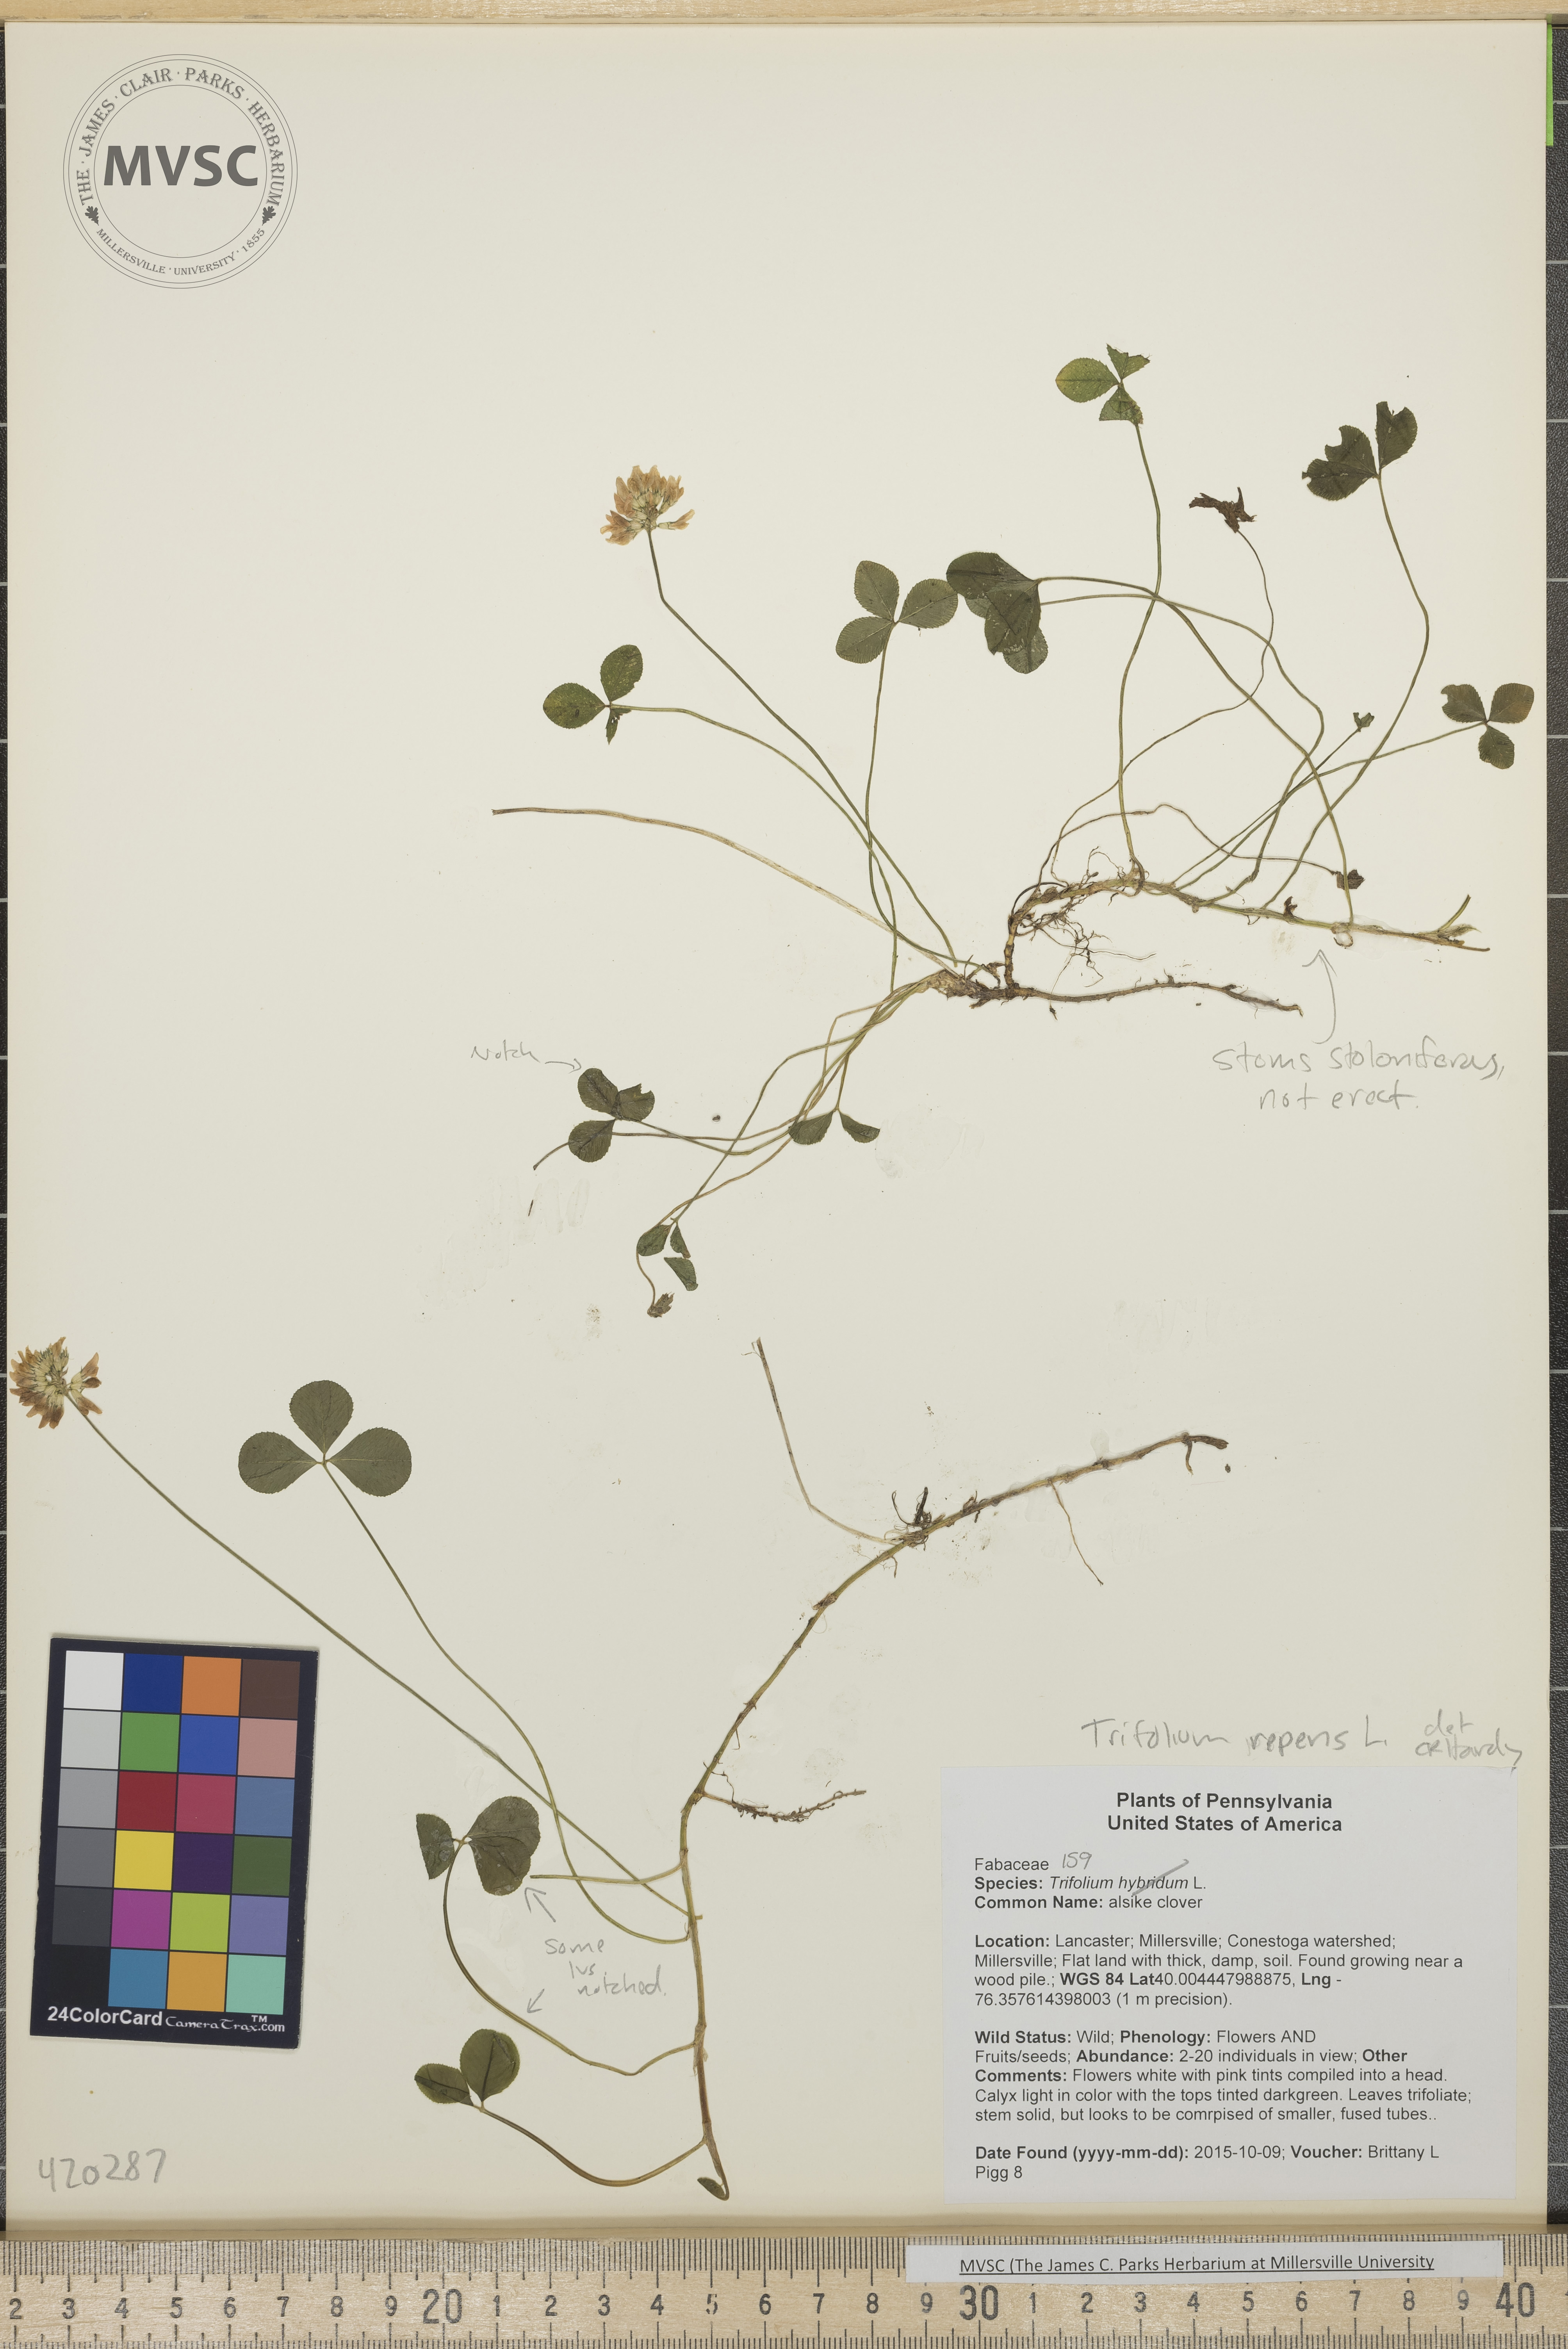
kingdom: Plantae
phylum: Tracheophyta
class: Magnoliopsida
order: Fabales
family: Fabaceae
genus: Trifolium
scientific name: Trifolium repens
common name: White clover
